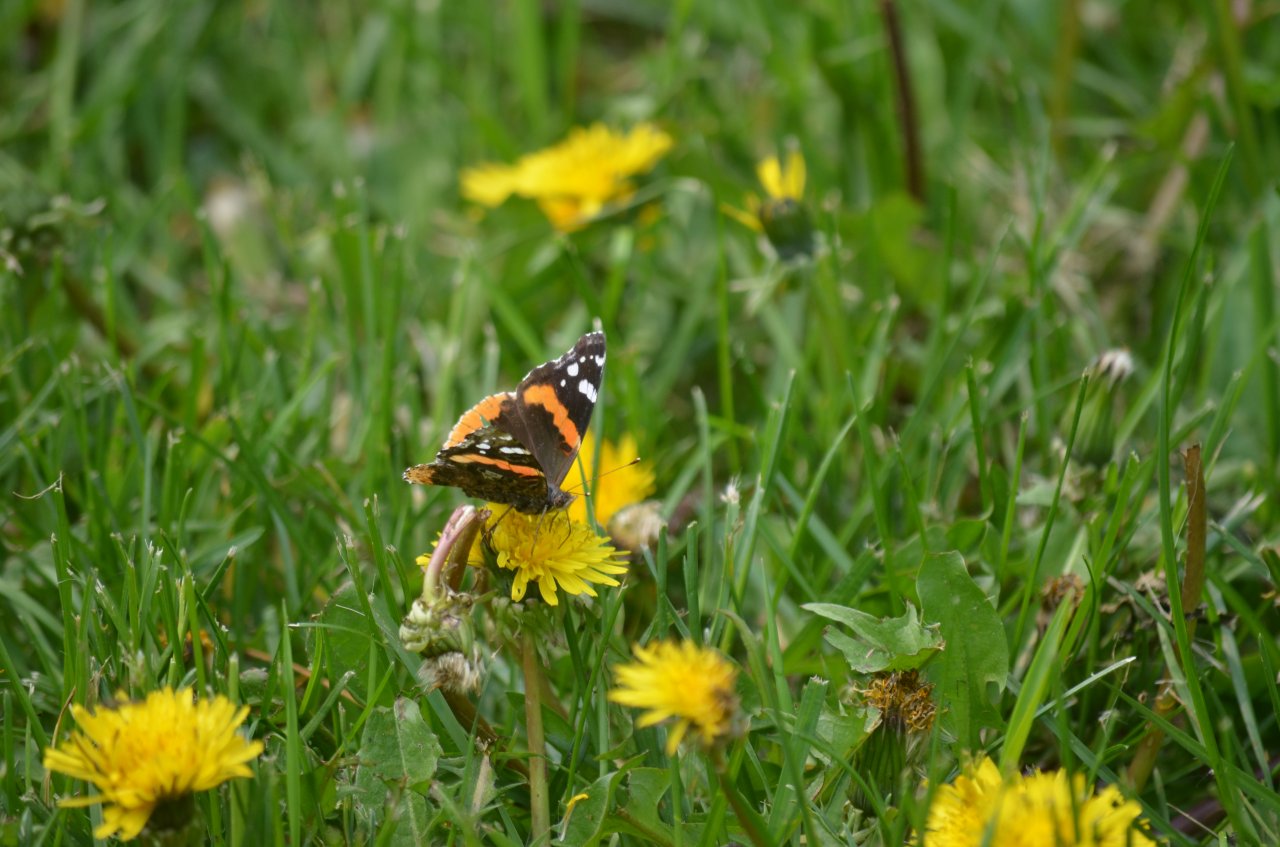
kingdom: Animalia
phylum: Arthropoda
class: Insecta
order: Lepidoptera
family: Nymphalidae
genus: Vanessa
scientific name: Vanessa atalanta
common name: Red Admiral
